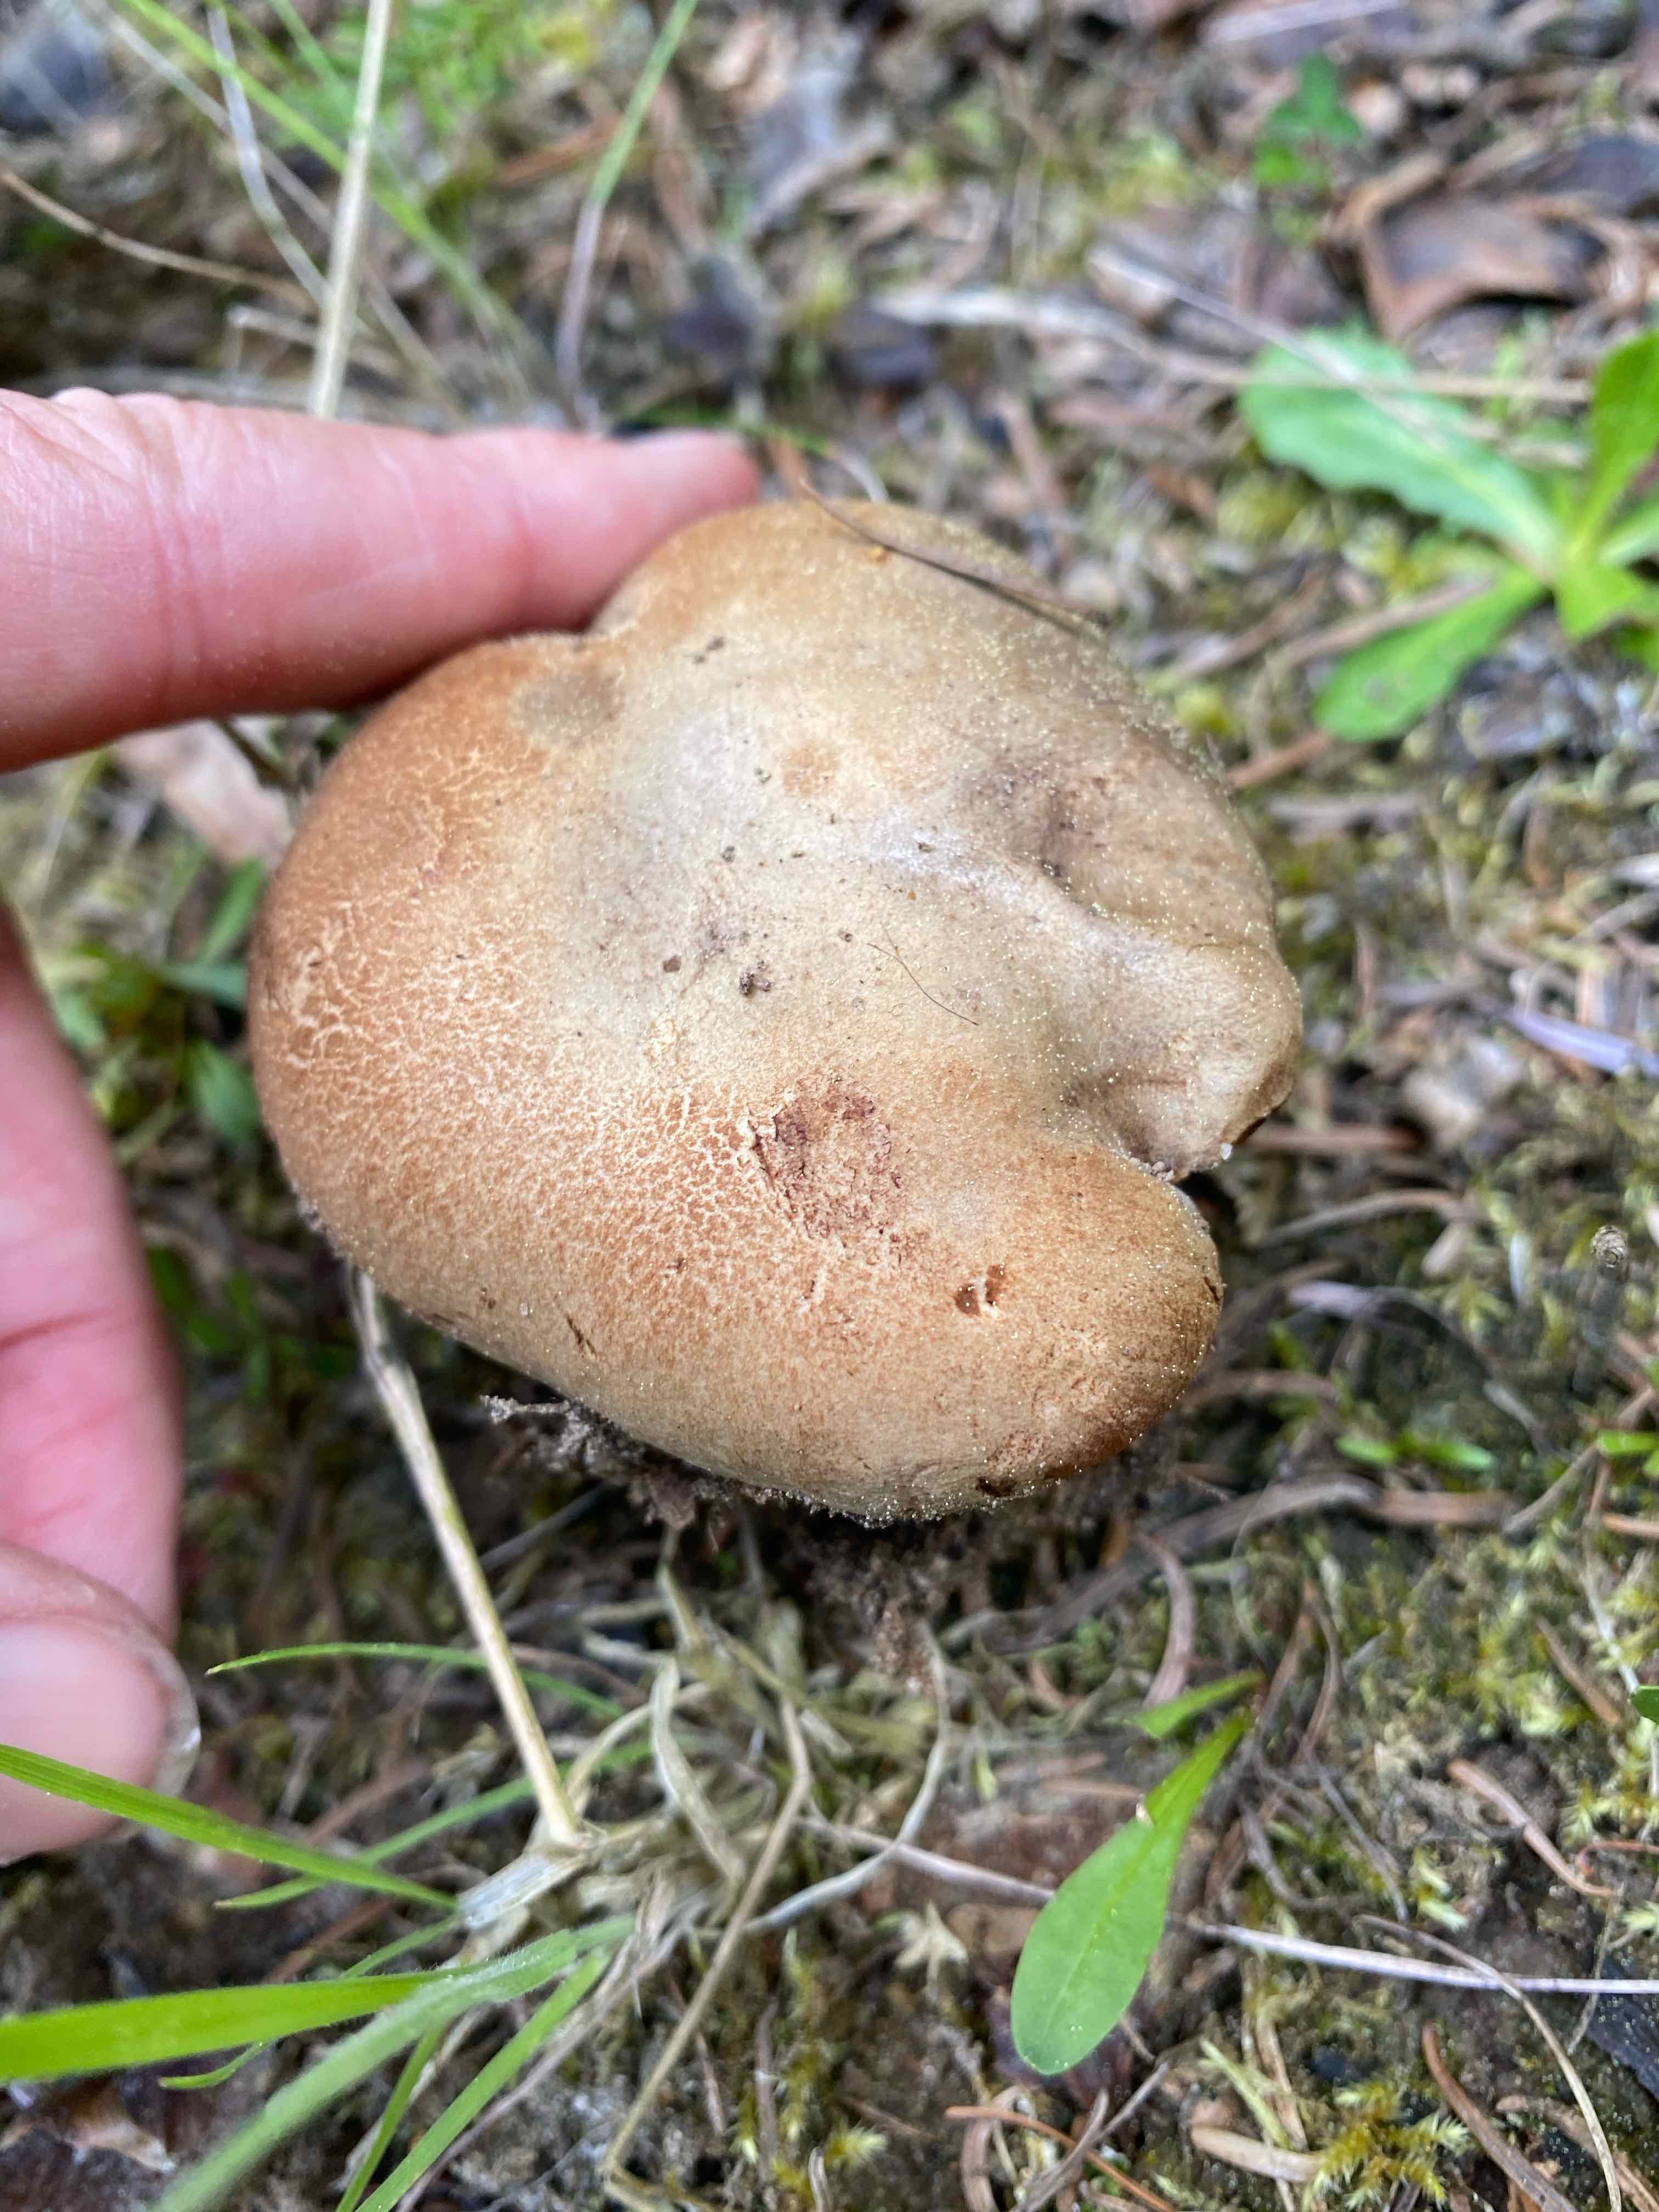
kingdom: Fungi
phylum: Basidiomycota
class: Agaricomycetes
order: Boletales
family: Paxillaceae
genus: Paxillus
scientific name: Paxillus
